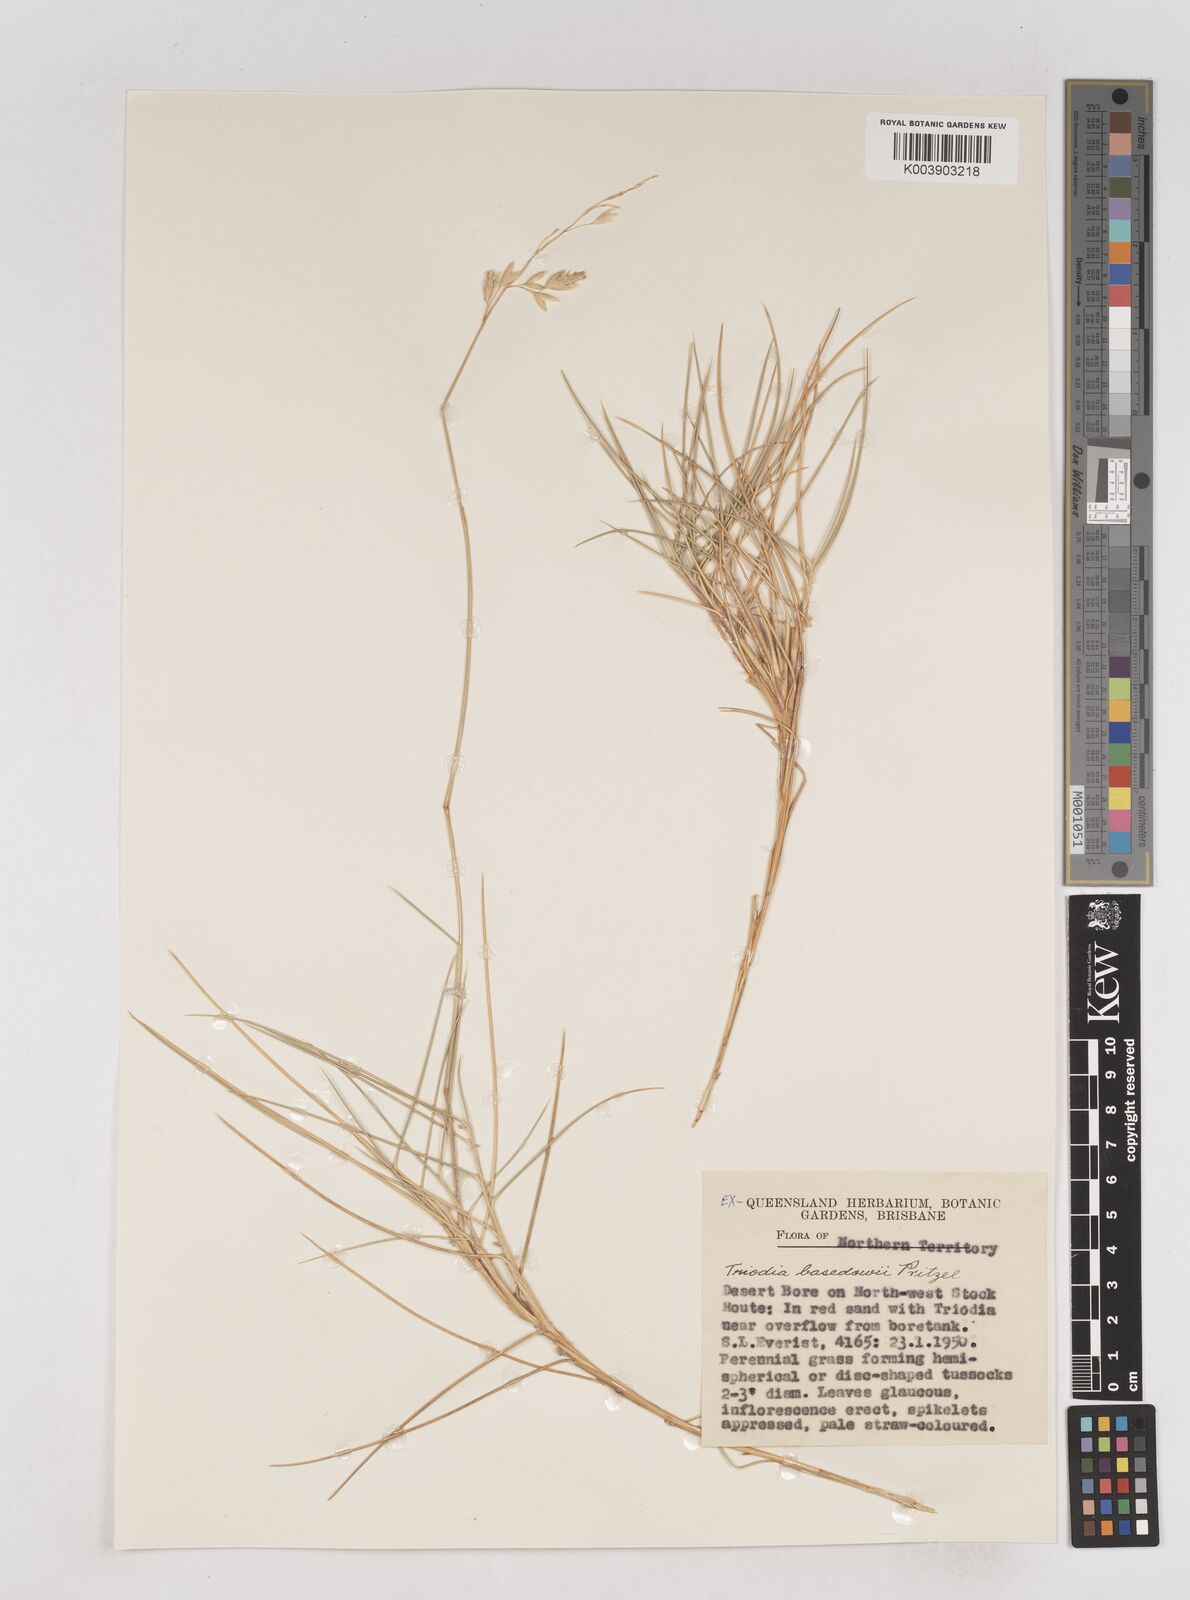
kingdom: Plantae
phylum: Tracheophyta
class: Liliopsida
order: Poales
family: Poaceae
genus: Triodia
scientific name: Triodia basedowii
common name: Hard spinifex
